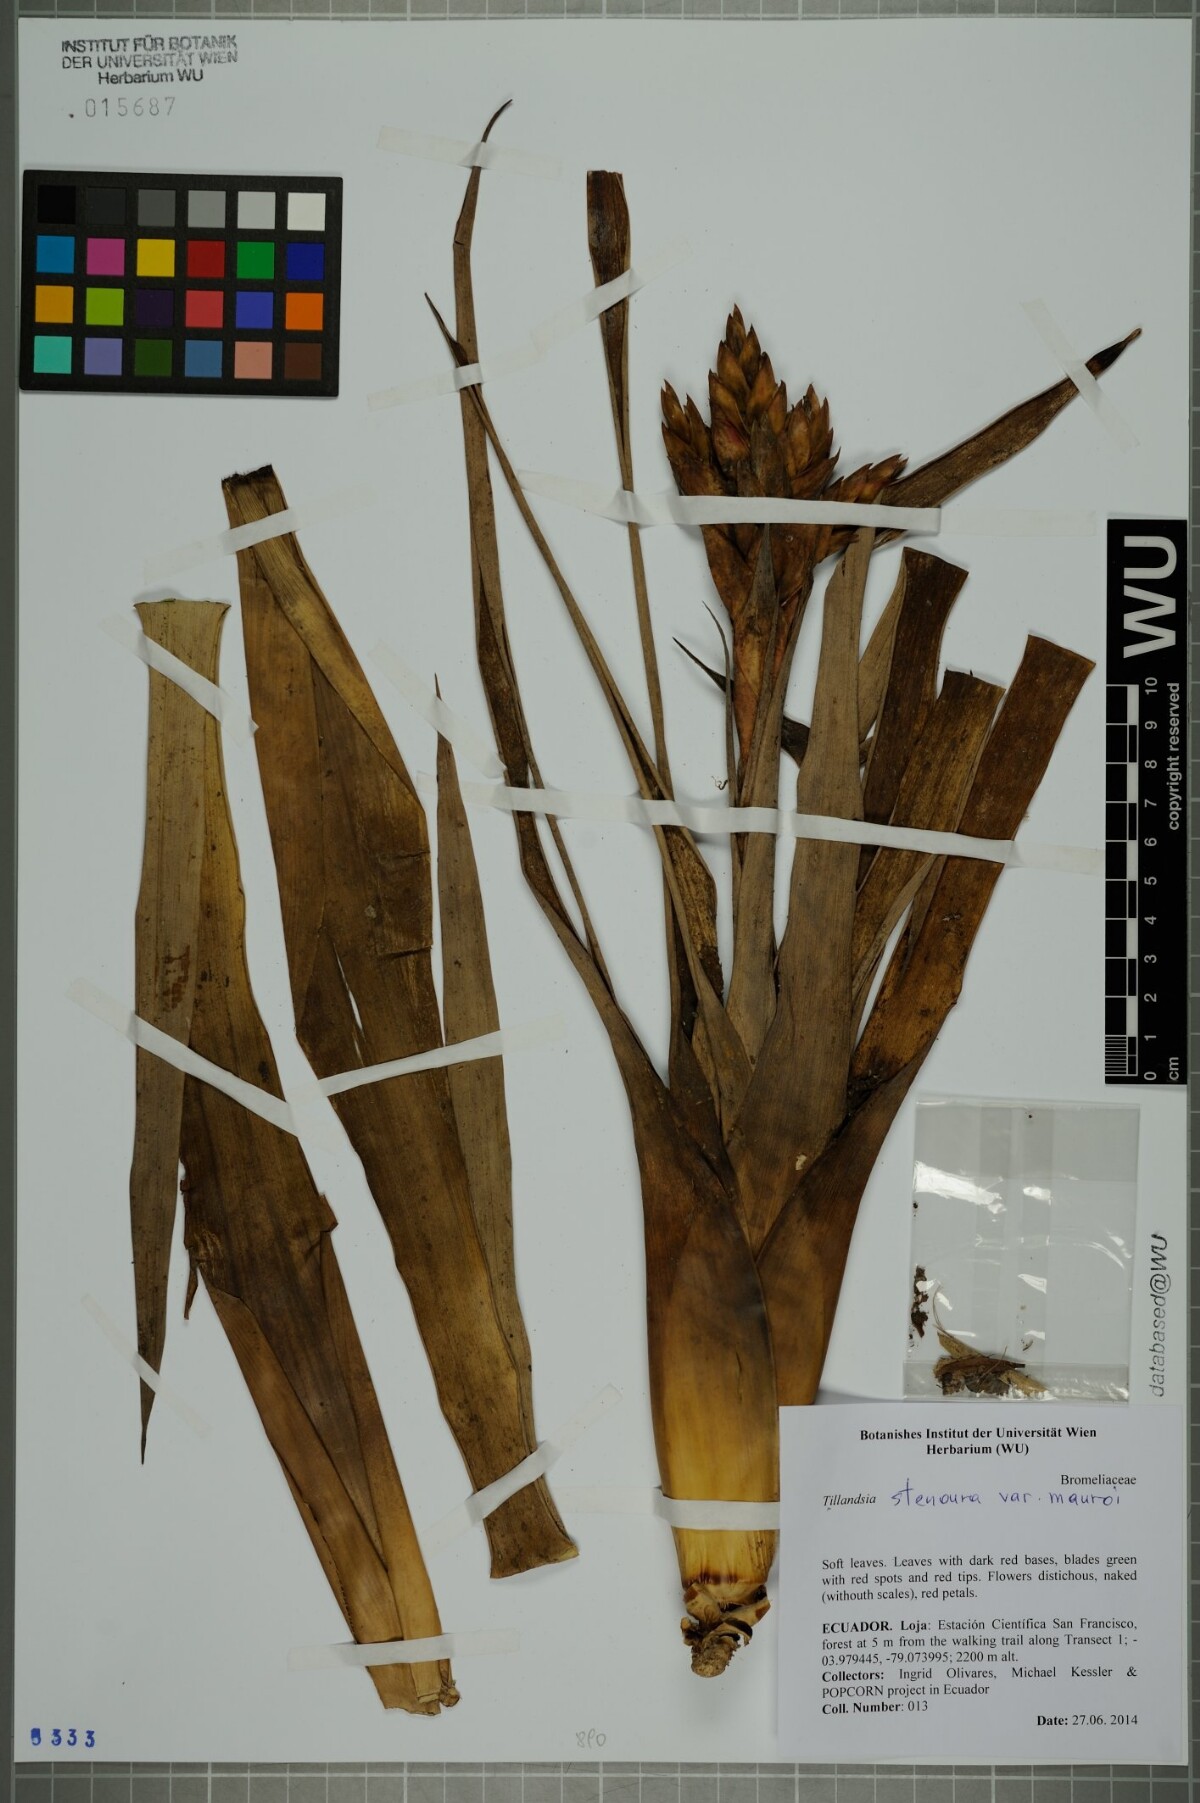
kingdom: Plantae
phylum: Tracheophyta
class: Liliopsida
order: Poales
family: Bromeliaceae
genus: Tillandsia
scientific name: Tillandsia stenoura
